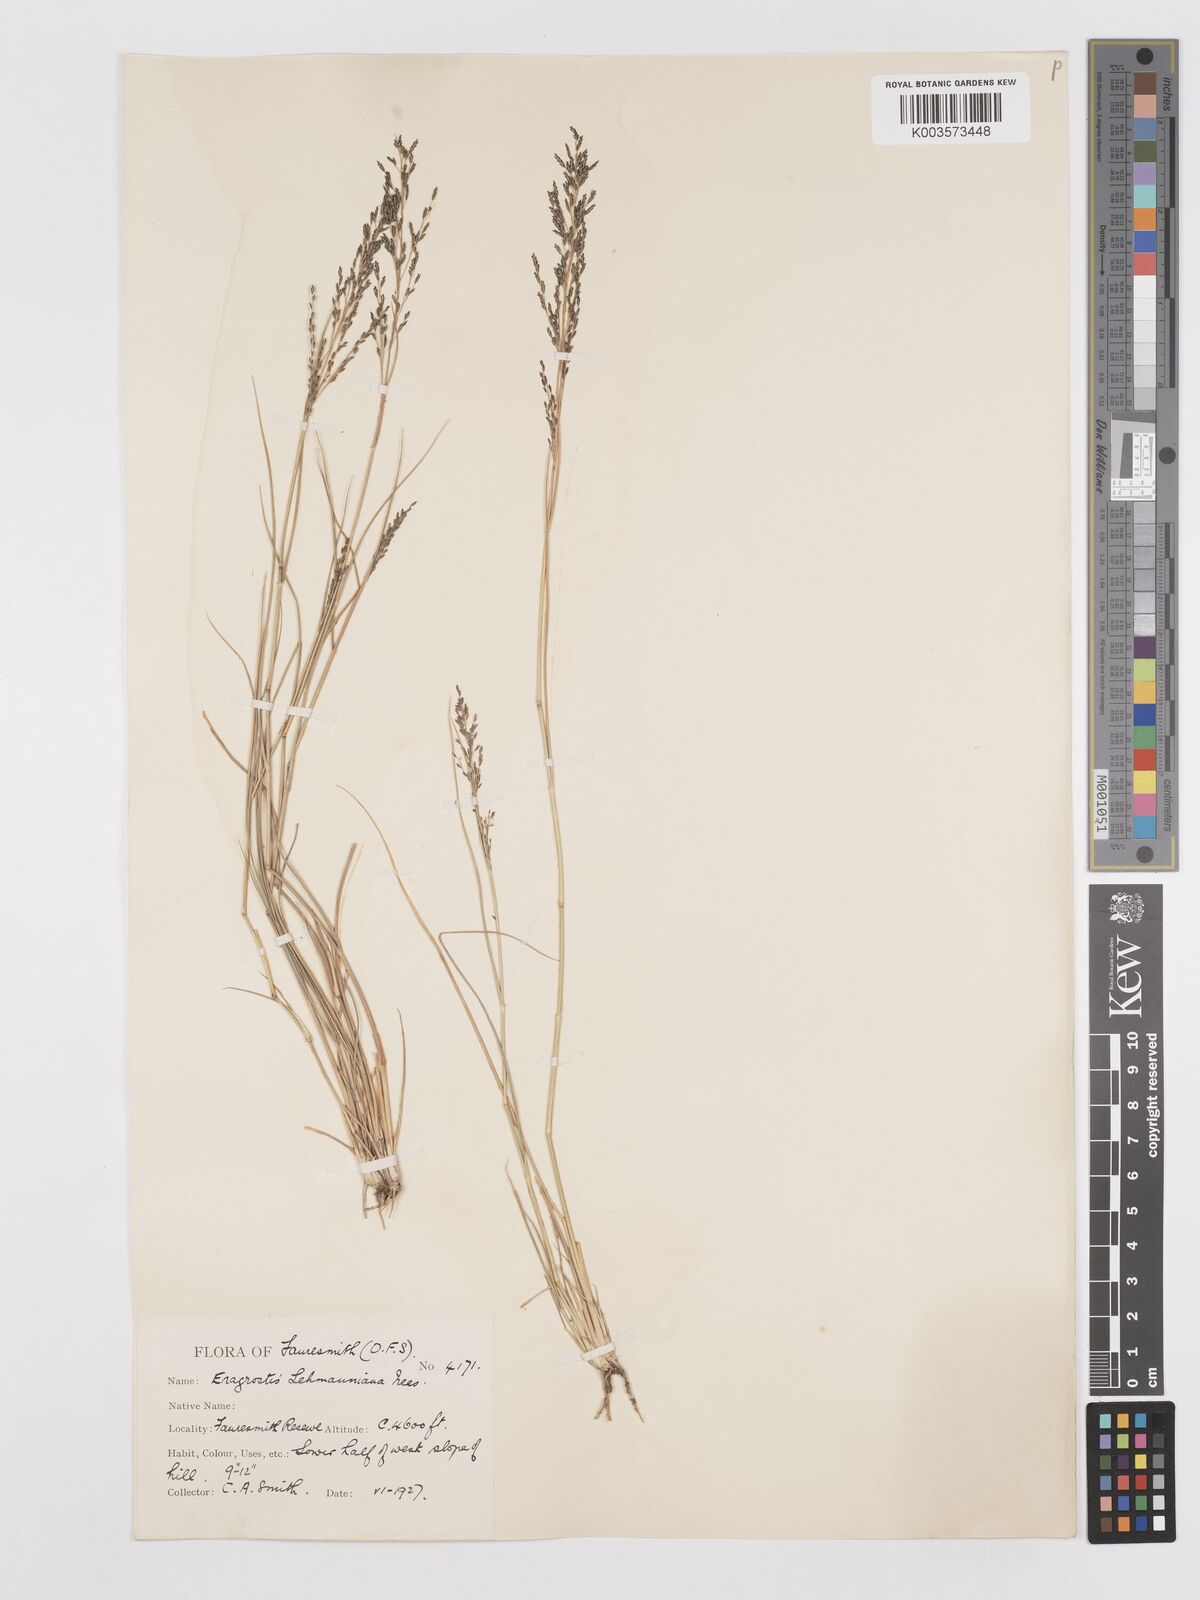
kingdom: Plantae
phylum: Tracheophyta
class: Liliopsida
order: Poales
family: Poaceae
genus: Eragrostis
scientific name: Eragrostis lehmanniana
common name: Lehmann lovegrass
